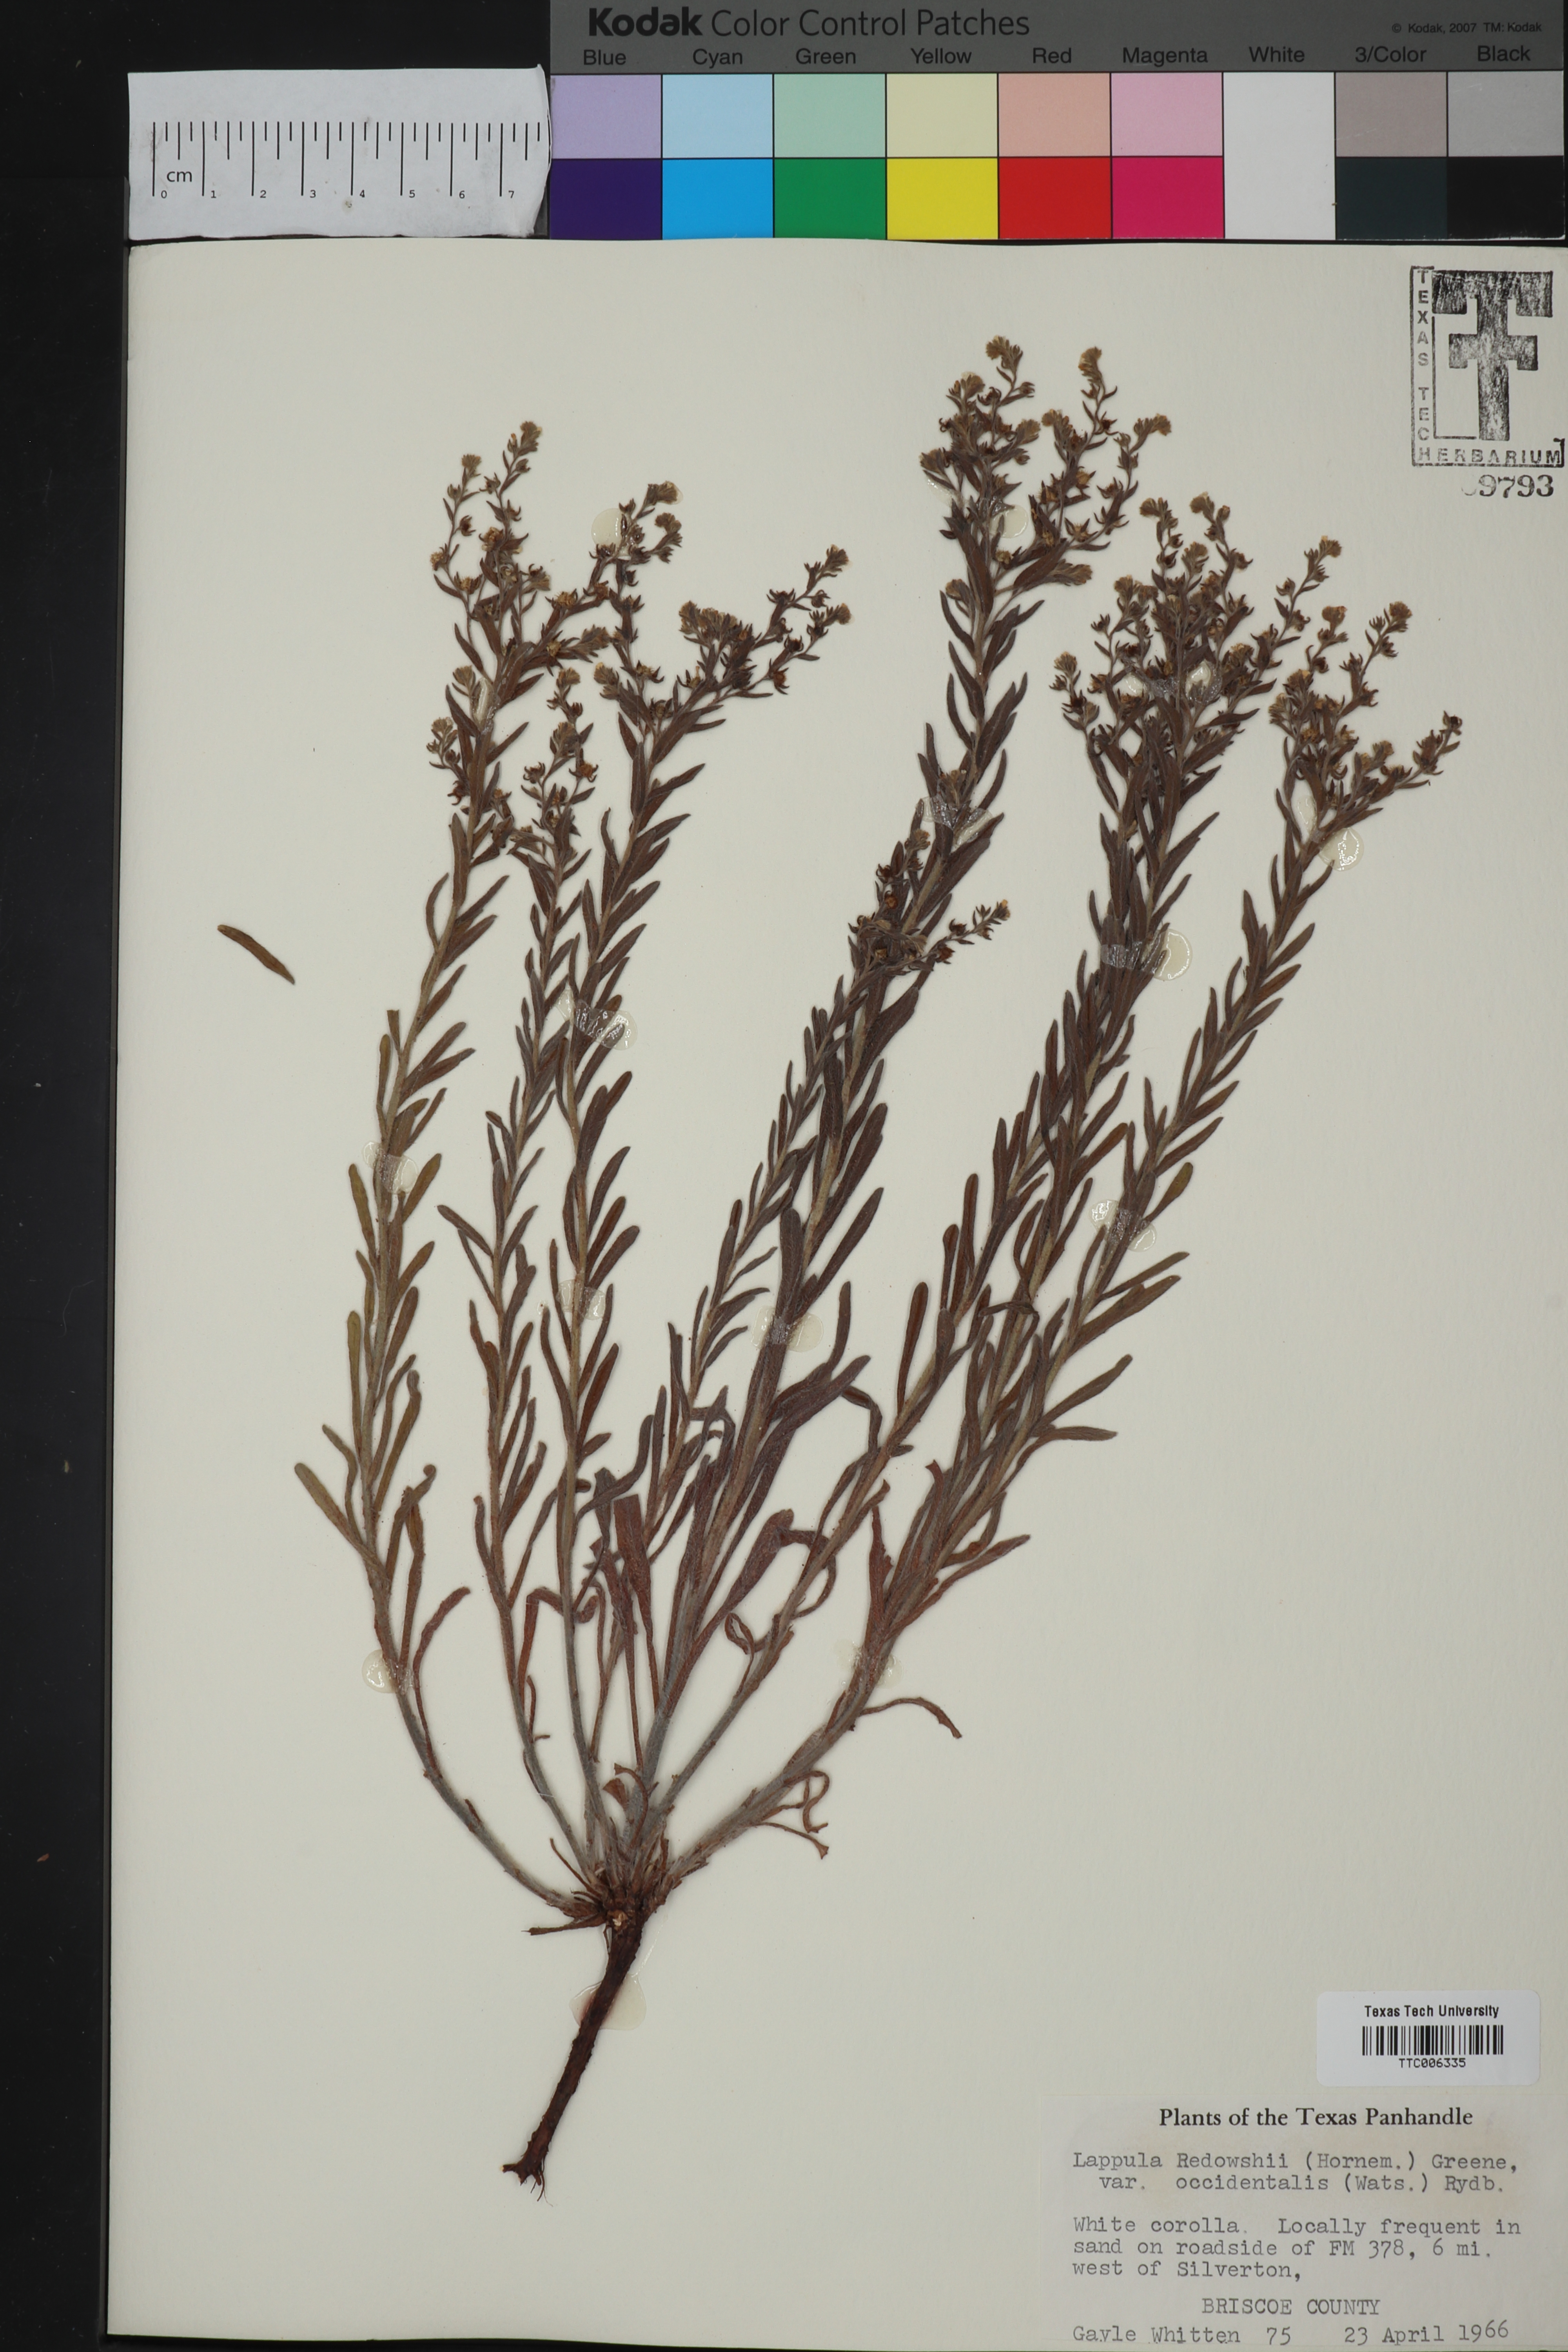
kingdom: Plantae
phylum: Tracheophyta
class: Magnoliopsida
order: Boraginales
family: Boraginaceae
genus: Lappula
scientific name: Lappula occidentalis
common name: Western stickseed
